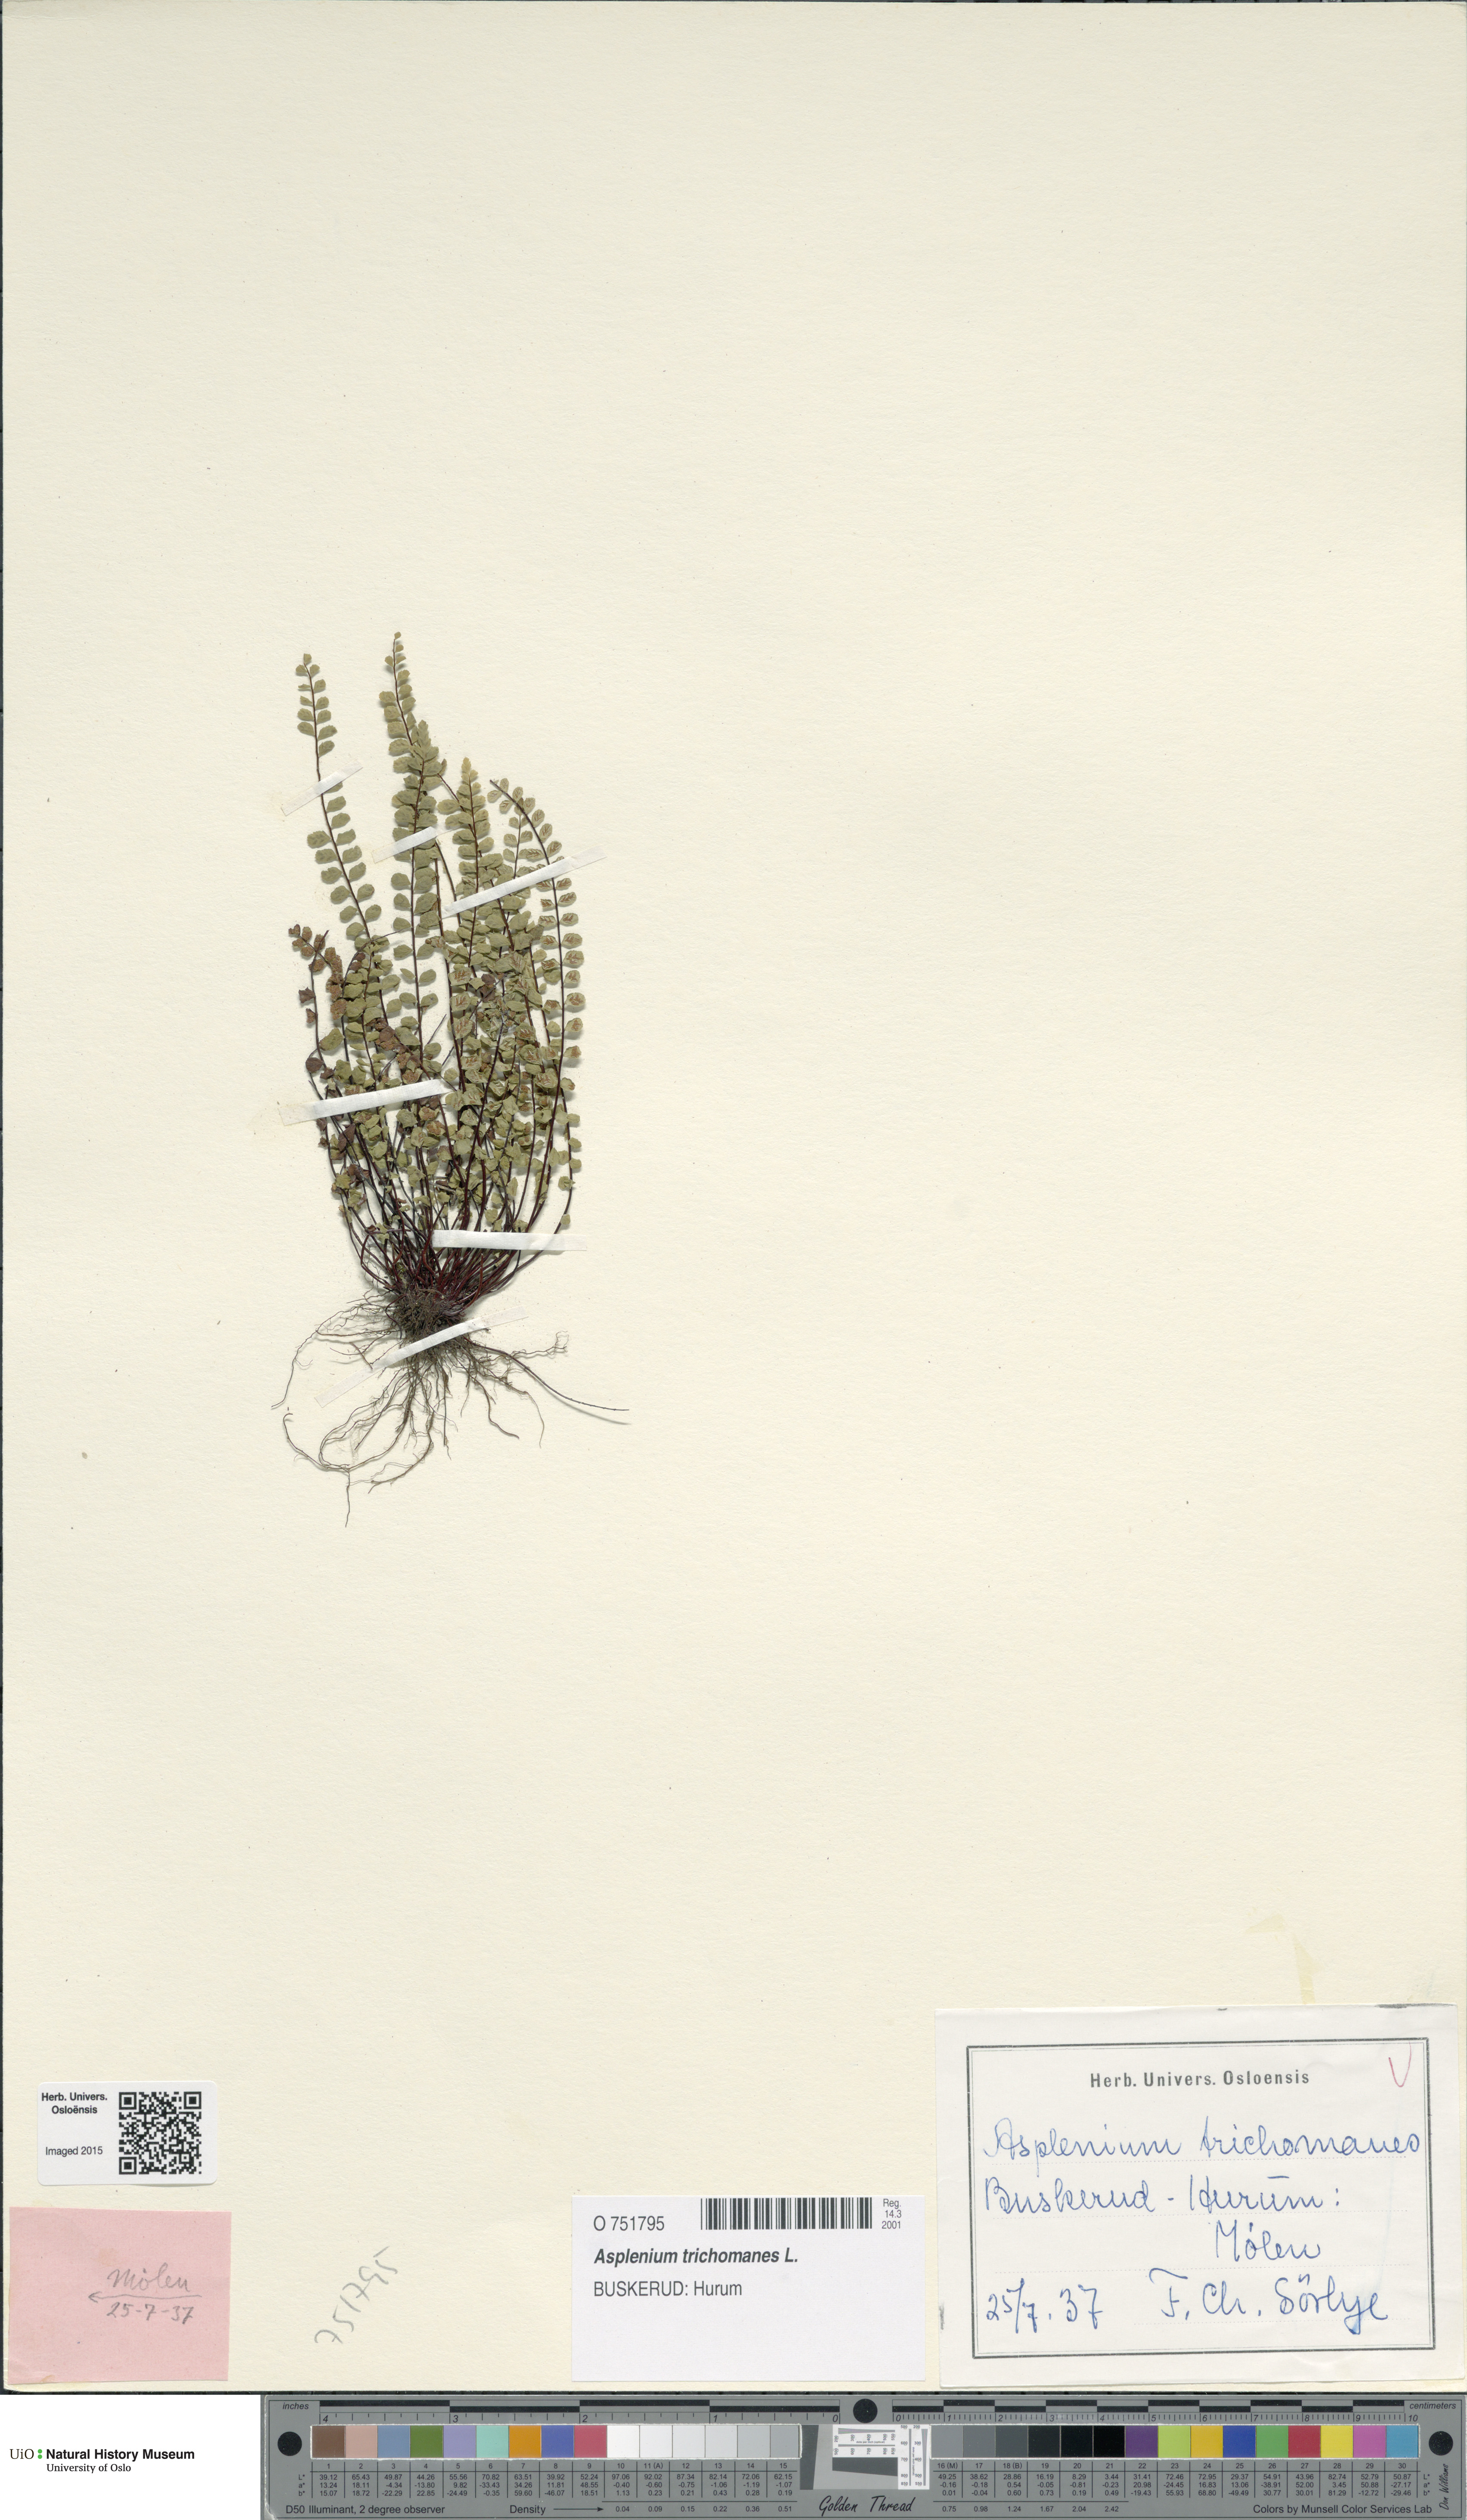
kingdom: Plantae
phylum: Tracheophyta
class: Polypodiopsida
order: Polypodiales
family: Aspleniaceae
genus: Asplenium
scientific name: Asplenium trichomanes
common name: Maidenhair spleenwort
